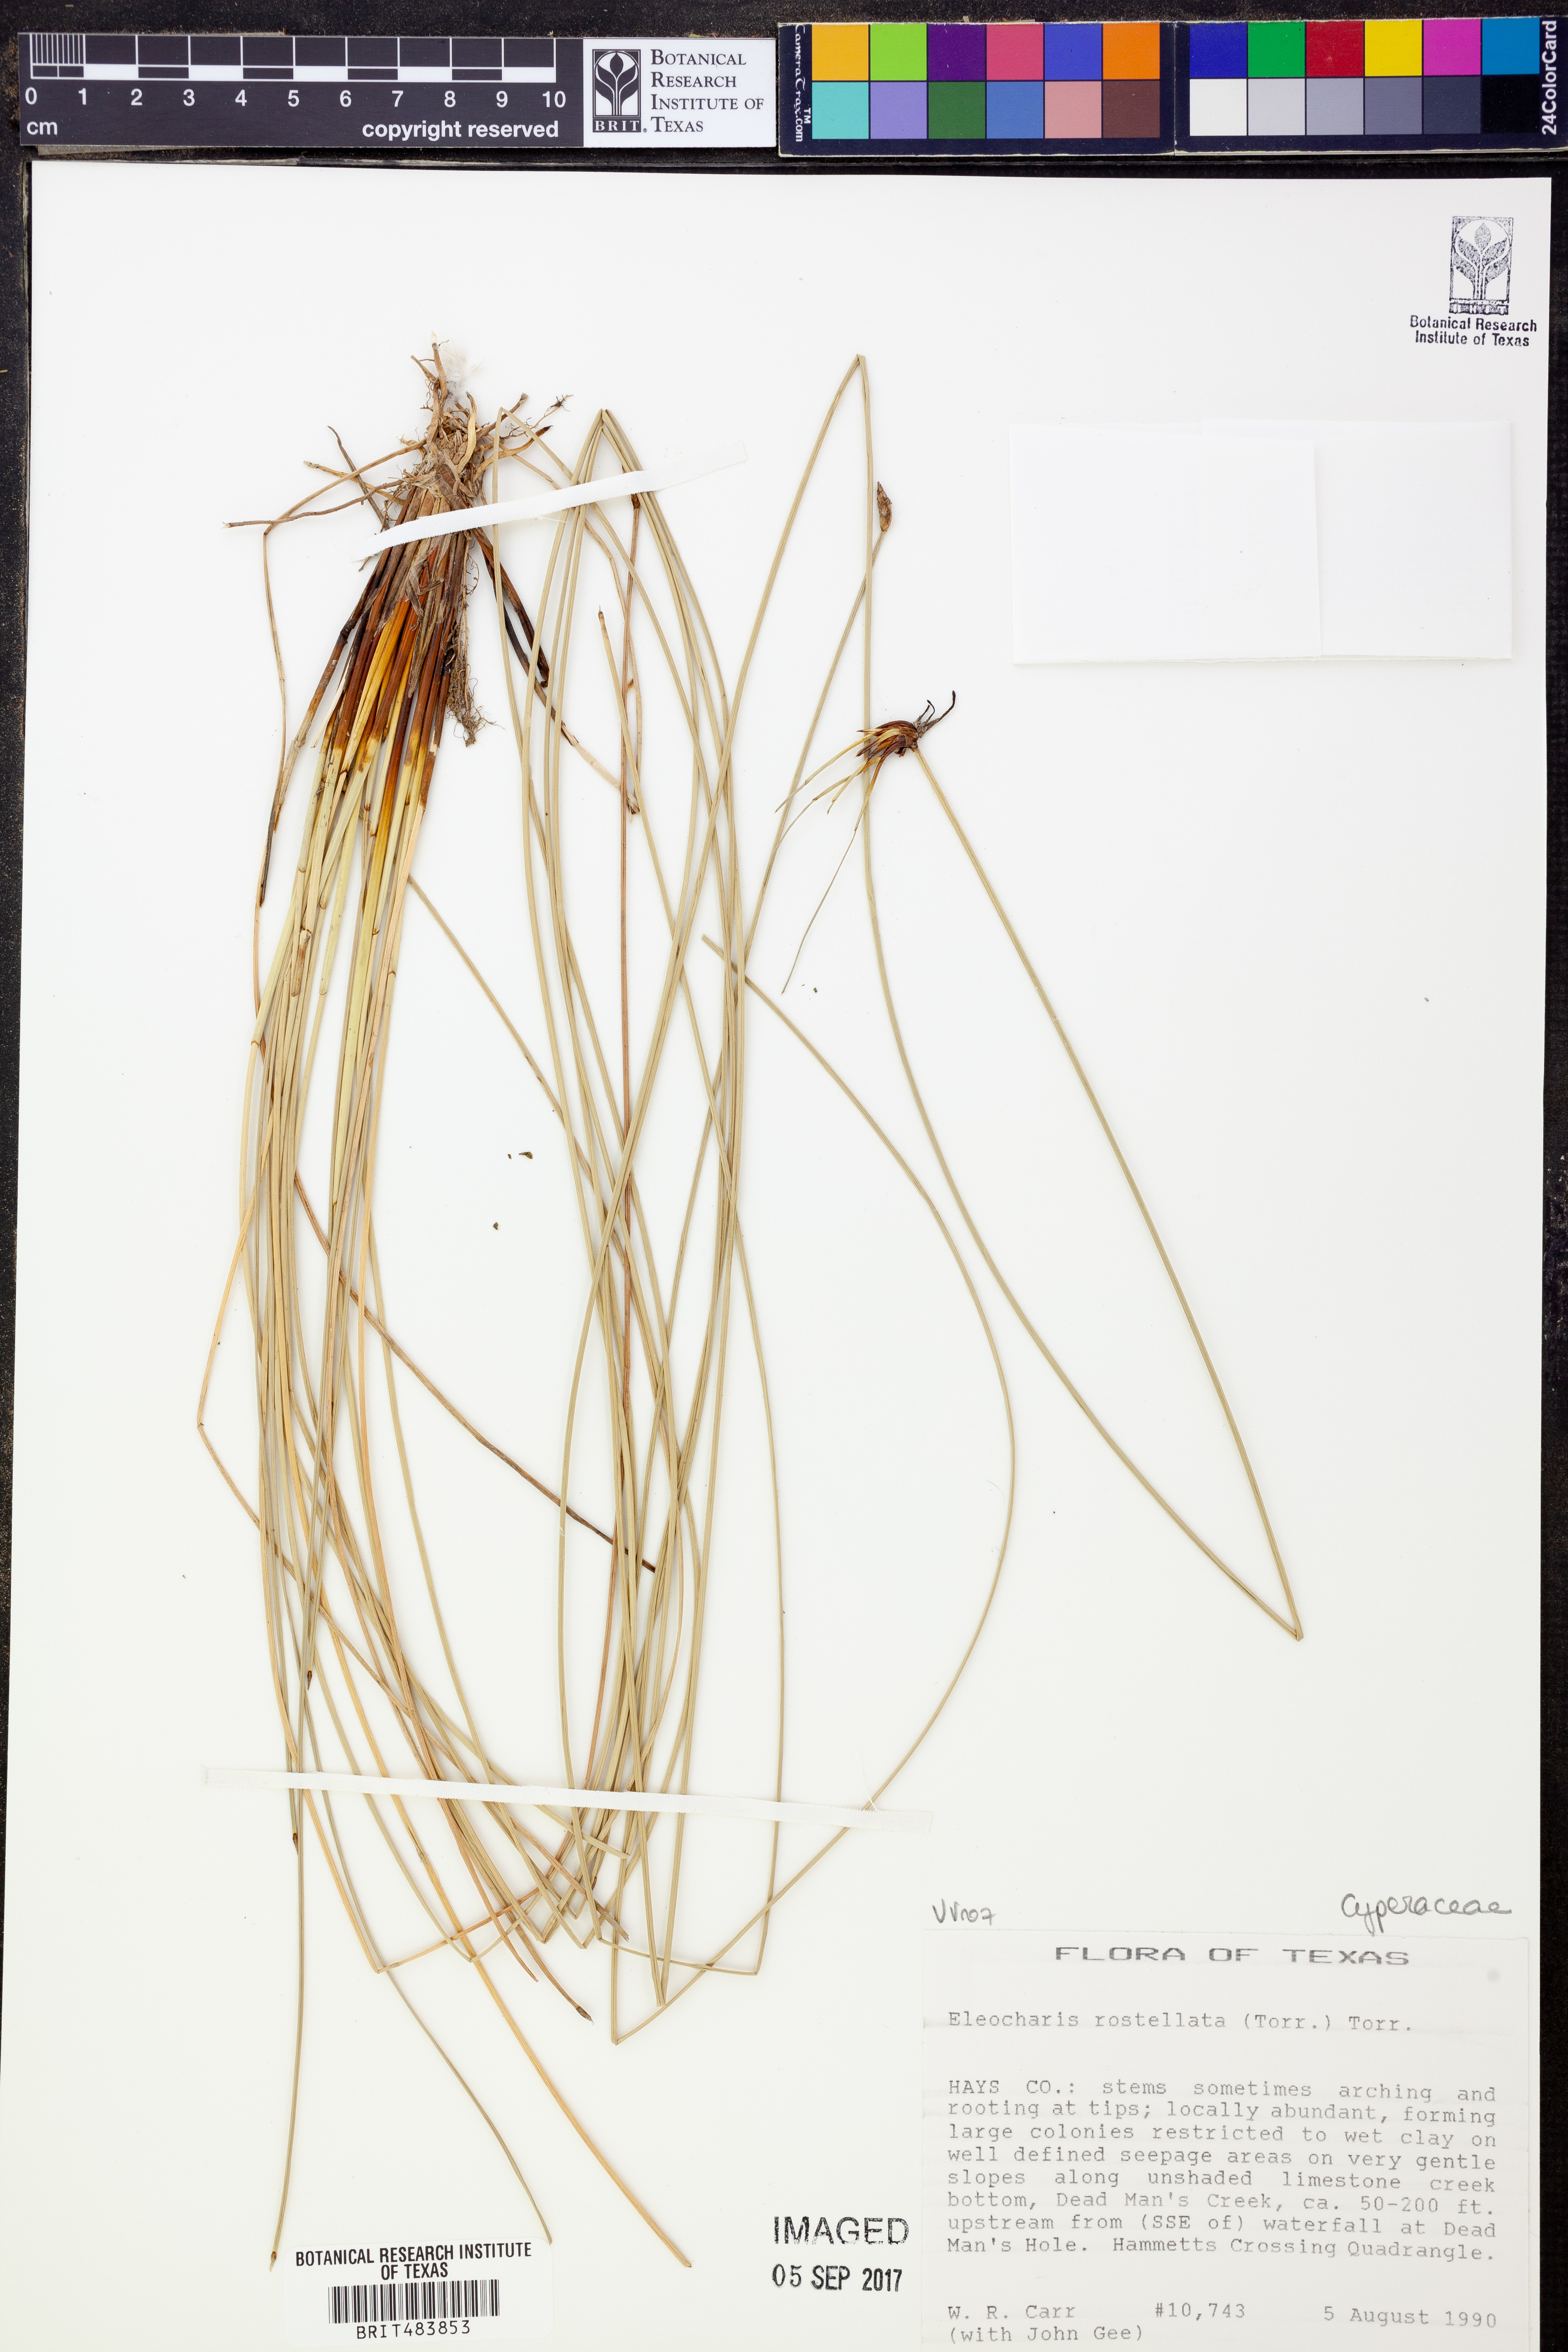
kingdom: Plantae
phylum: Tracheophyta
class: Liliopsida
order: Poales
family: Cyperaceae
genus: Eleocharis
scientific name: Eleocharis rostellata
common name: Walking sedge
